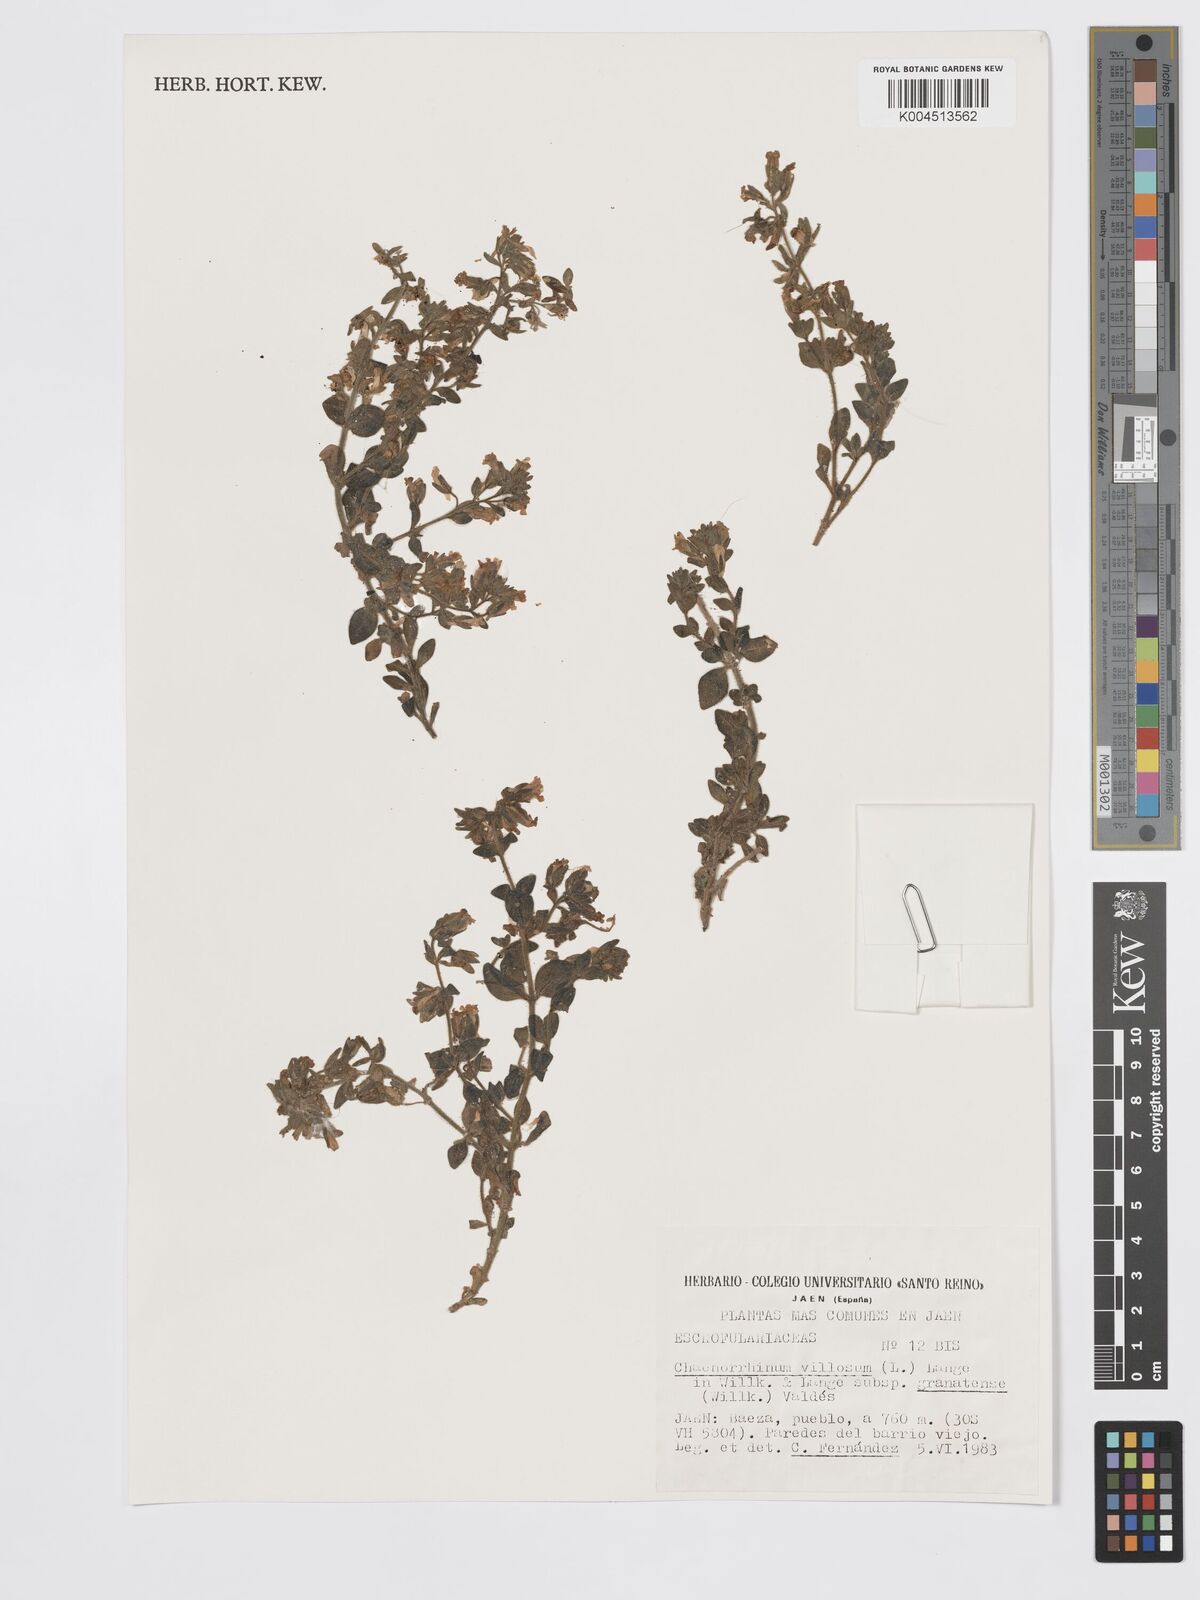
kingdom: Plantae
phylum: Tracheophyta
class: Magnoliopsida
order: Lamiales
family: Plantaginaceae
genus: Chaenorhinum
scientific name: Chaenorhinum villosum
